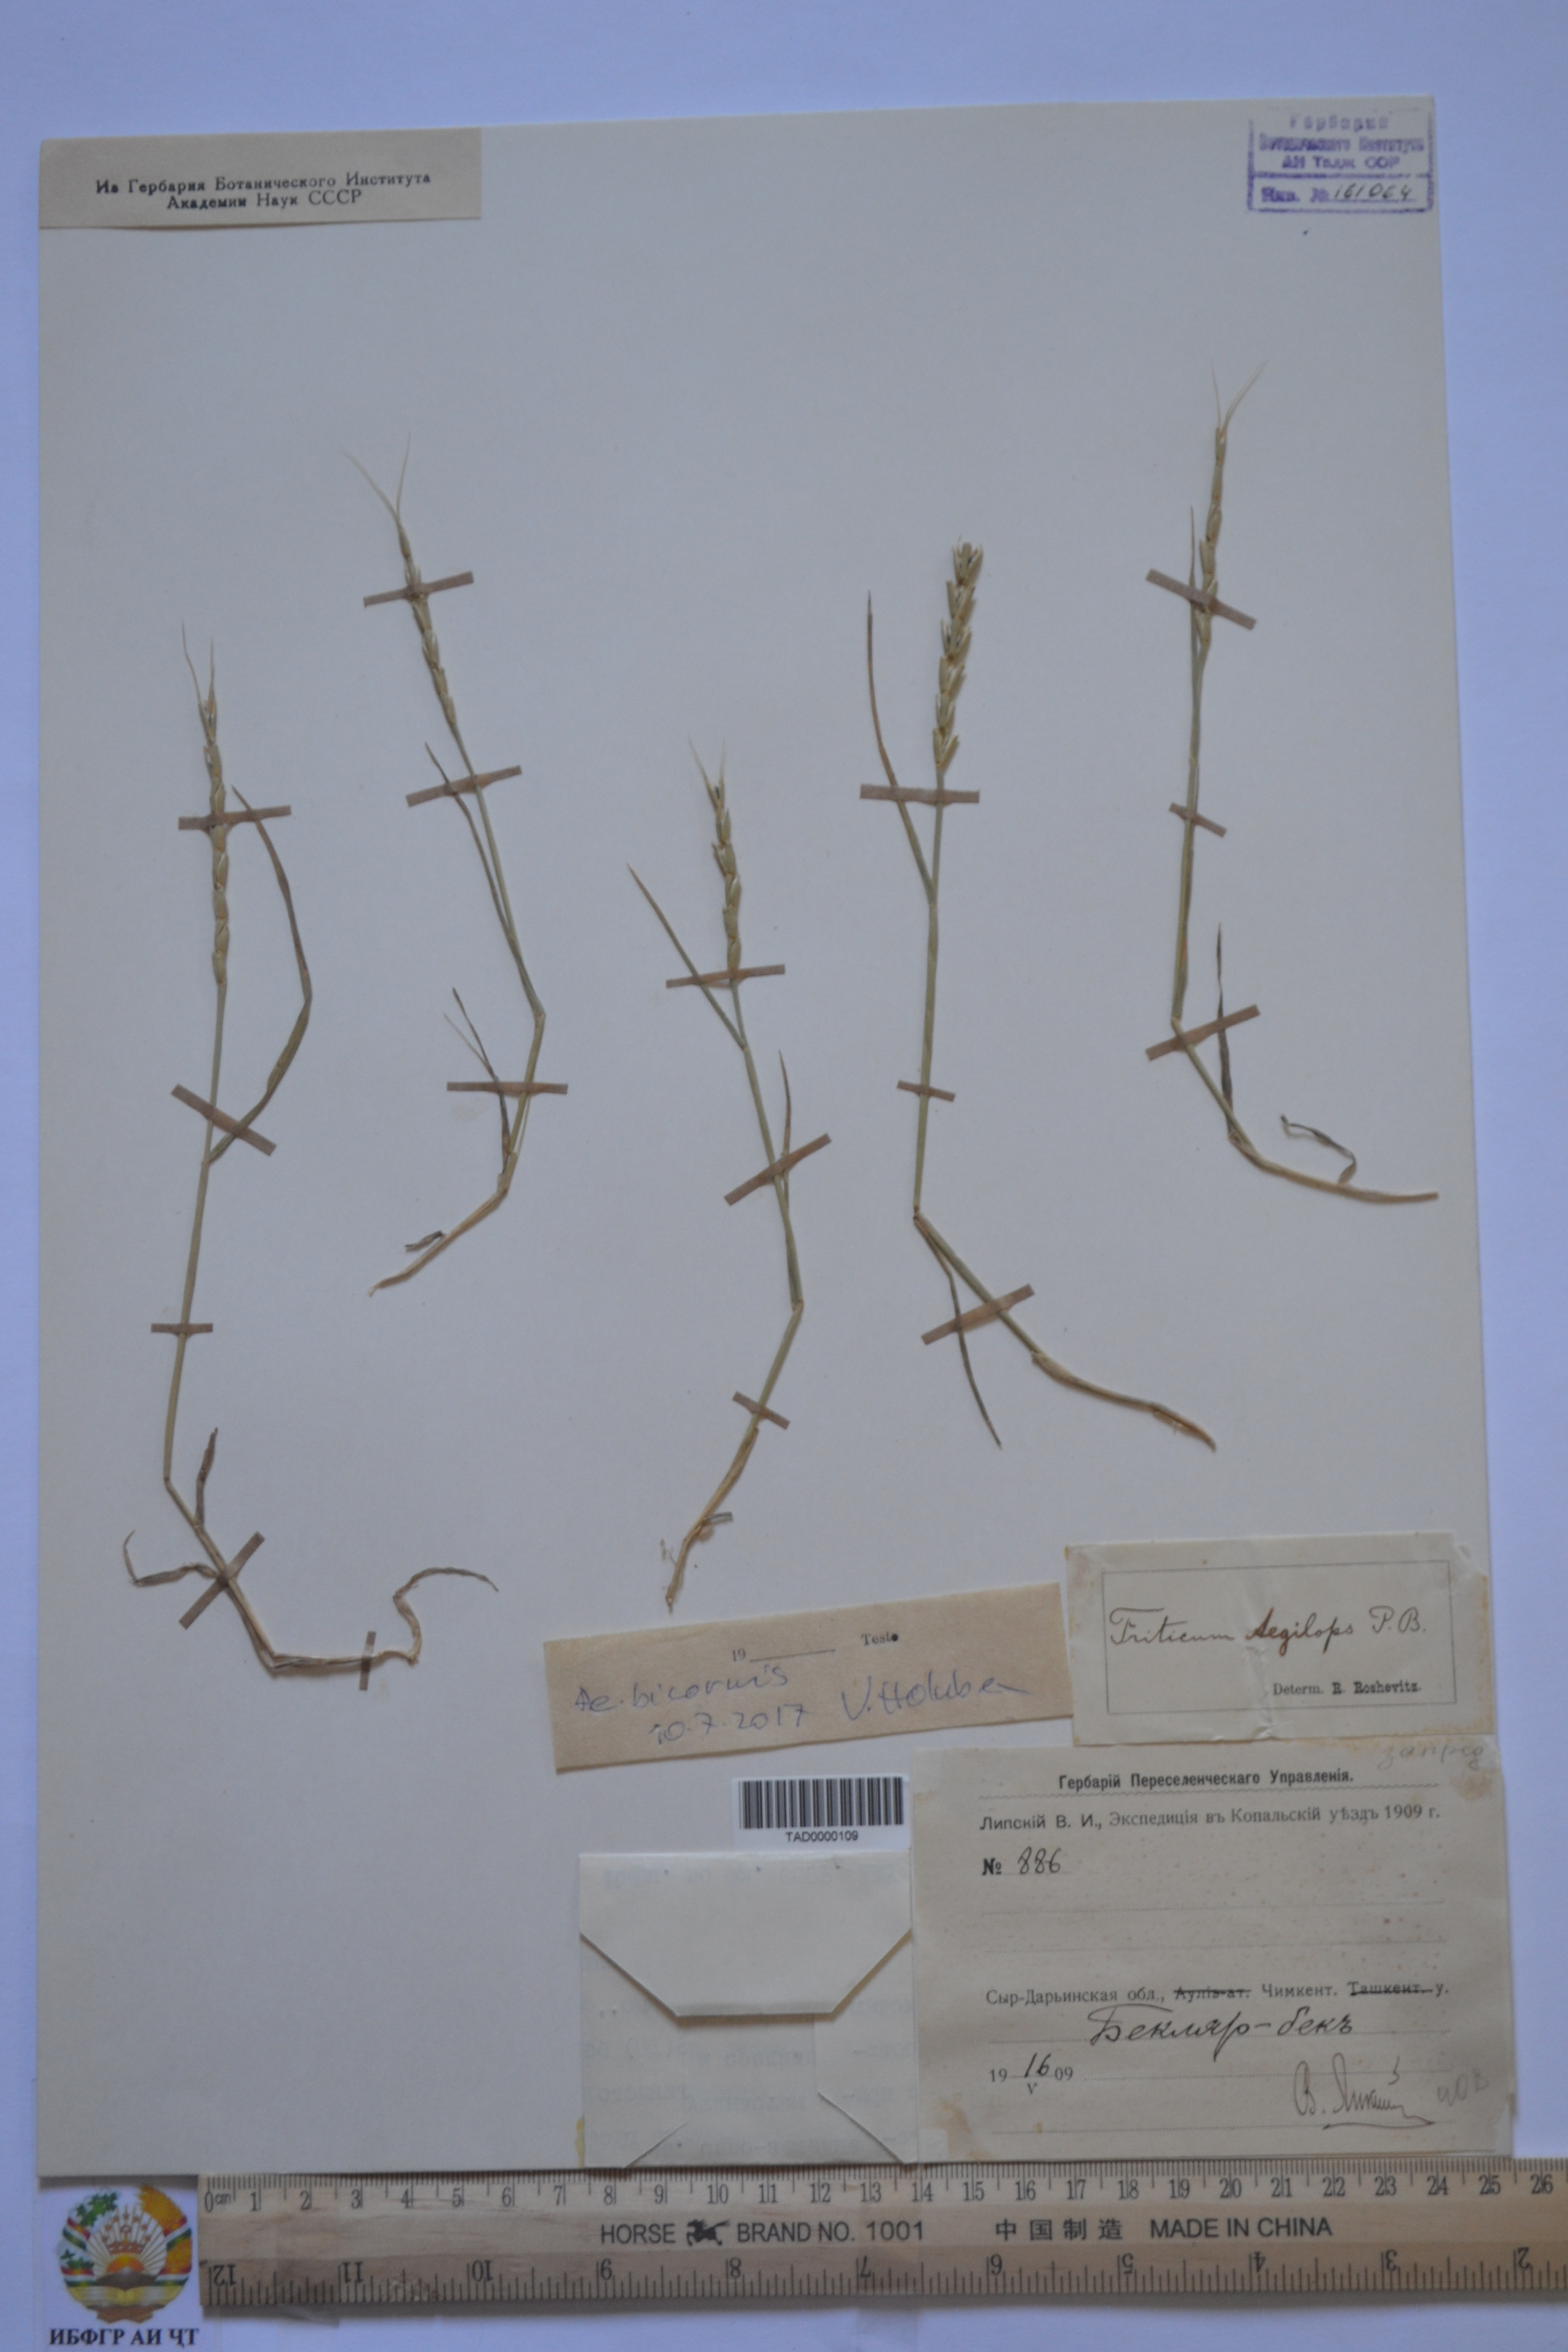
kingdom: Plantae
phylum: Tracheophyta
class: Liliopsida
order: Poales
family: Poaceae
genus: Aegilops
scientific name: Aegilops tauschii
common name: Rough-spike hard grass
